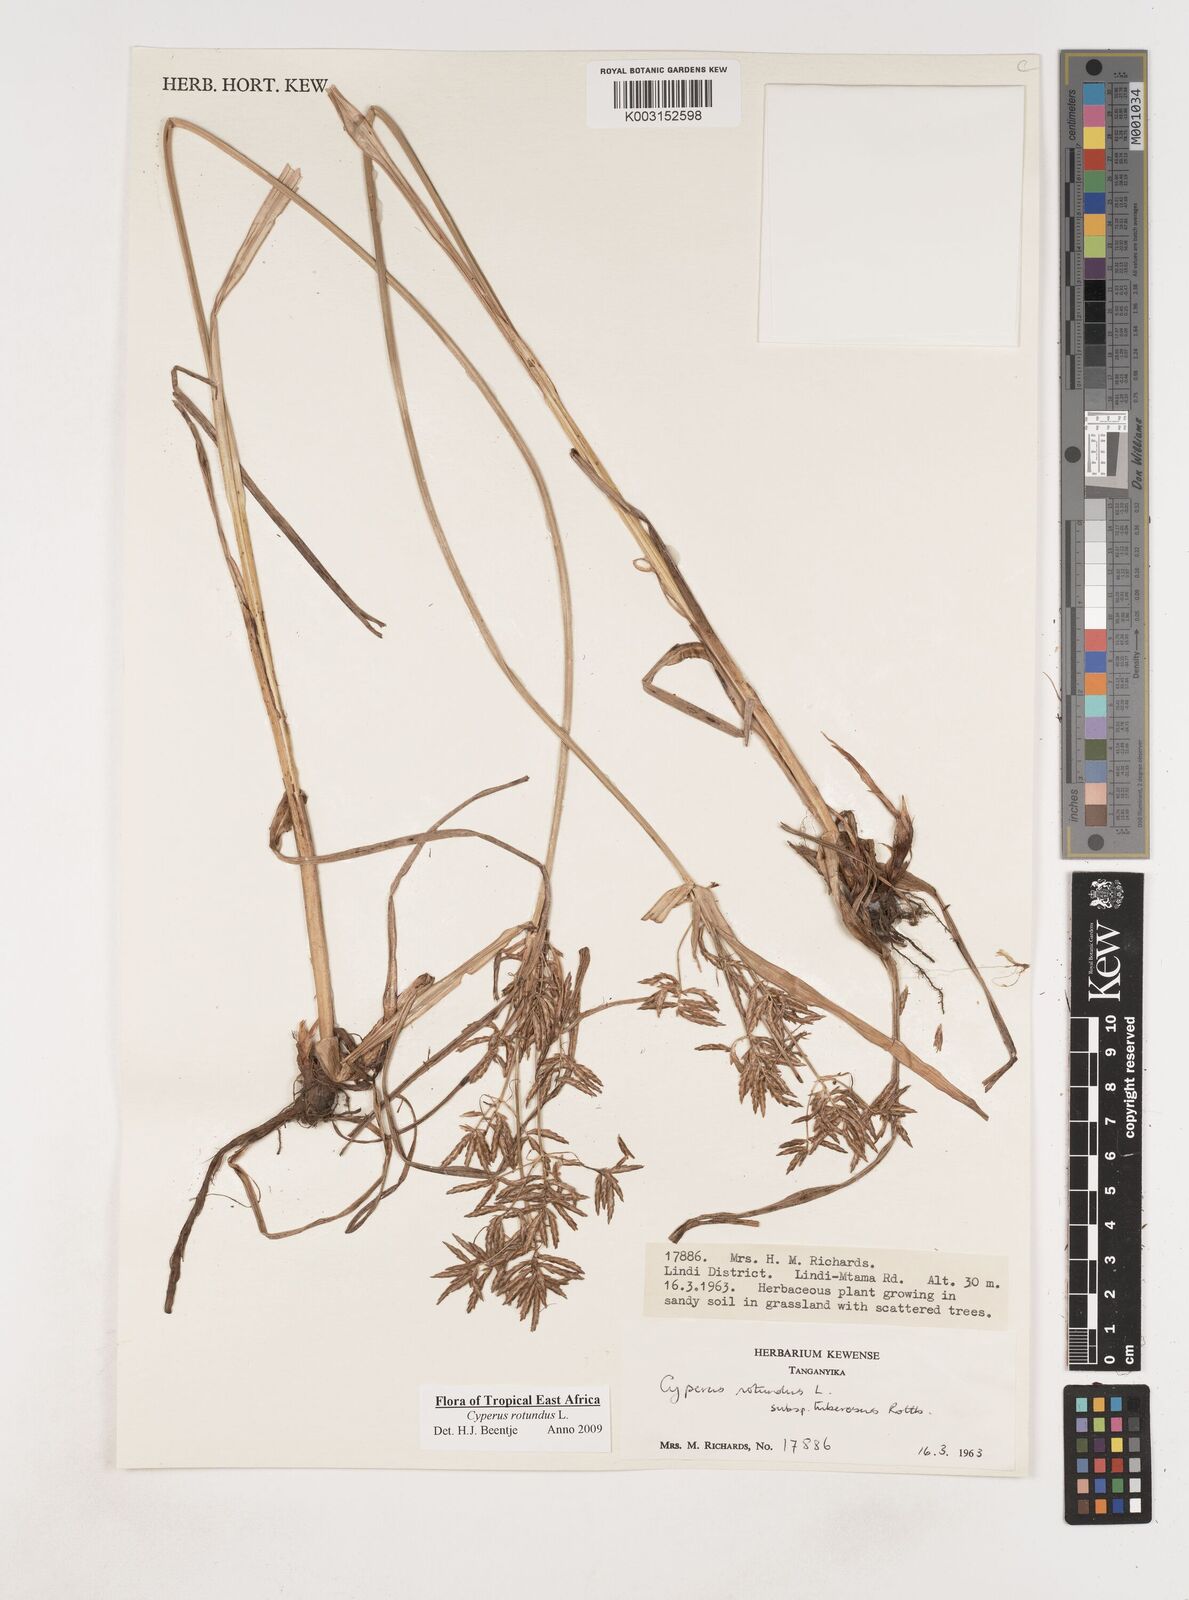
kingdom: Plantae
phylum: Tracheophyta
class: Liliopsida
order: Poales
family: Cyperaceae
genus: Cyperus
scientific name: Cyperus tuberosus
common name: Nut grass
